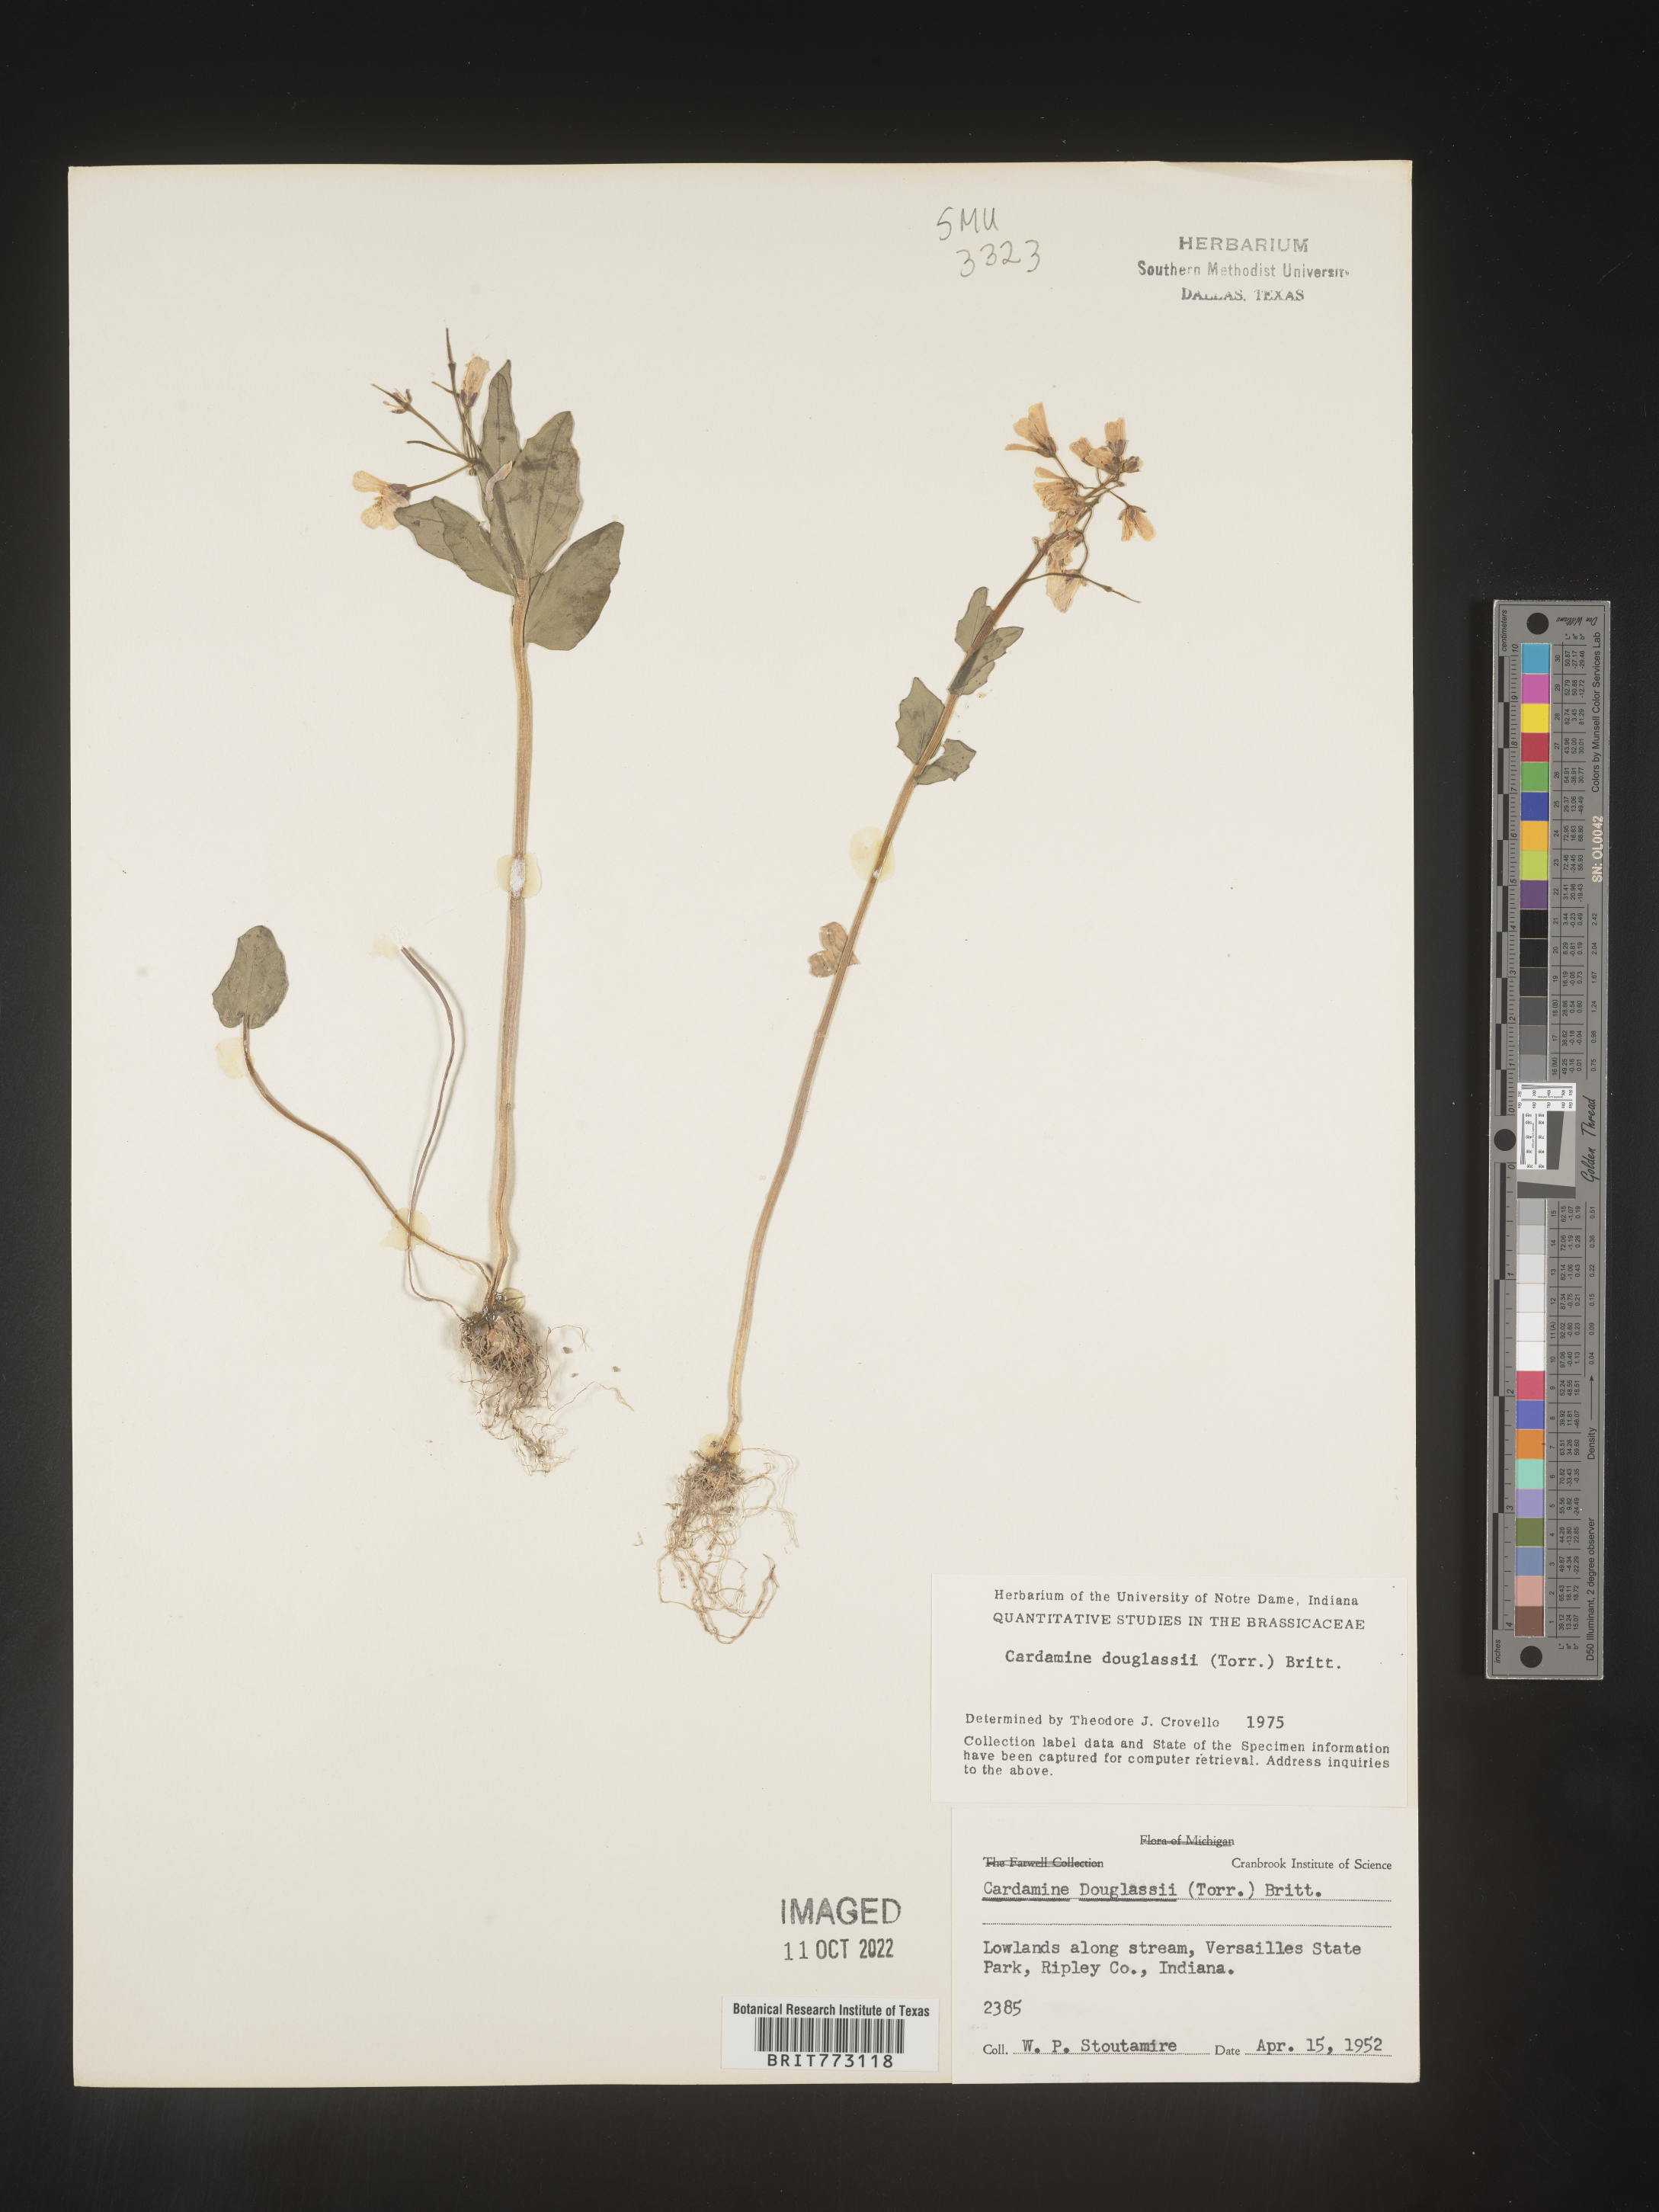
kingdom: Plantae
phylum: Tracheophyta
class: Magnoliopsida
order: Brassicales
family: Brassicaceae
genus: Cardamine
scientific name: Cardamine
